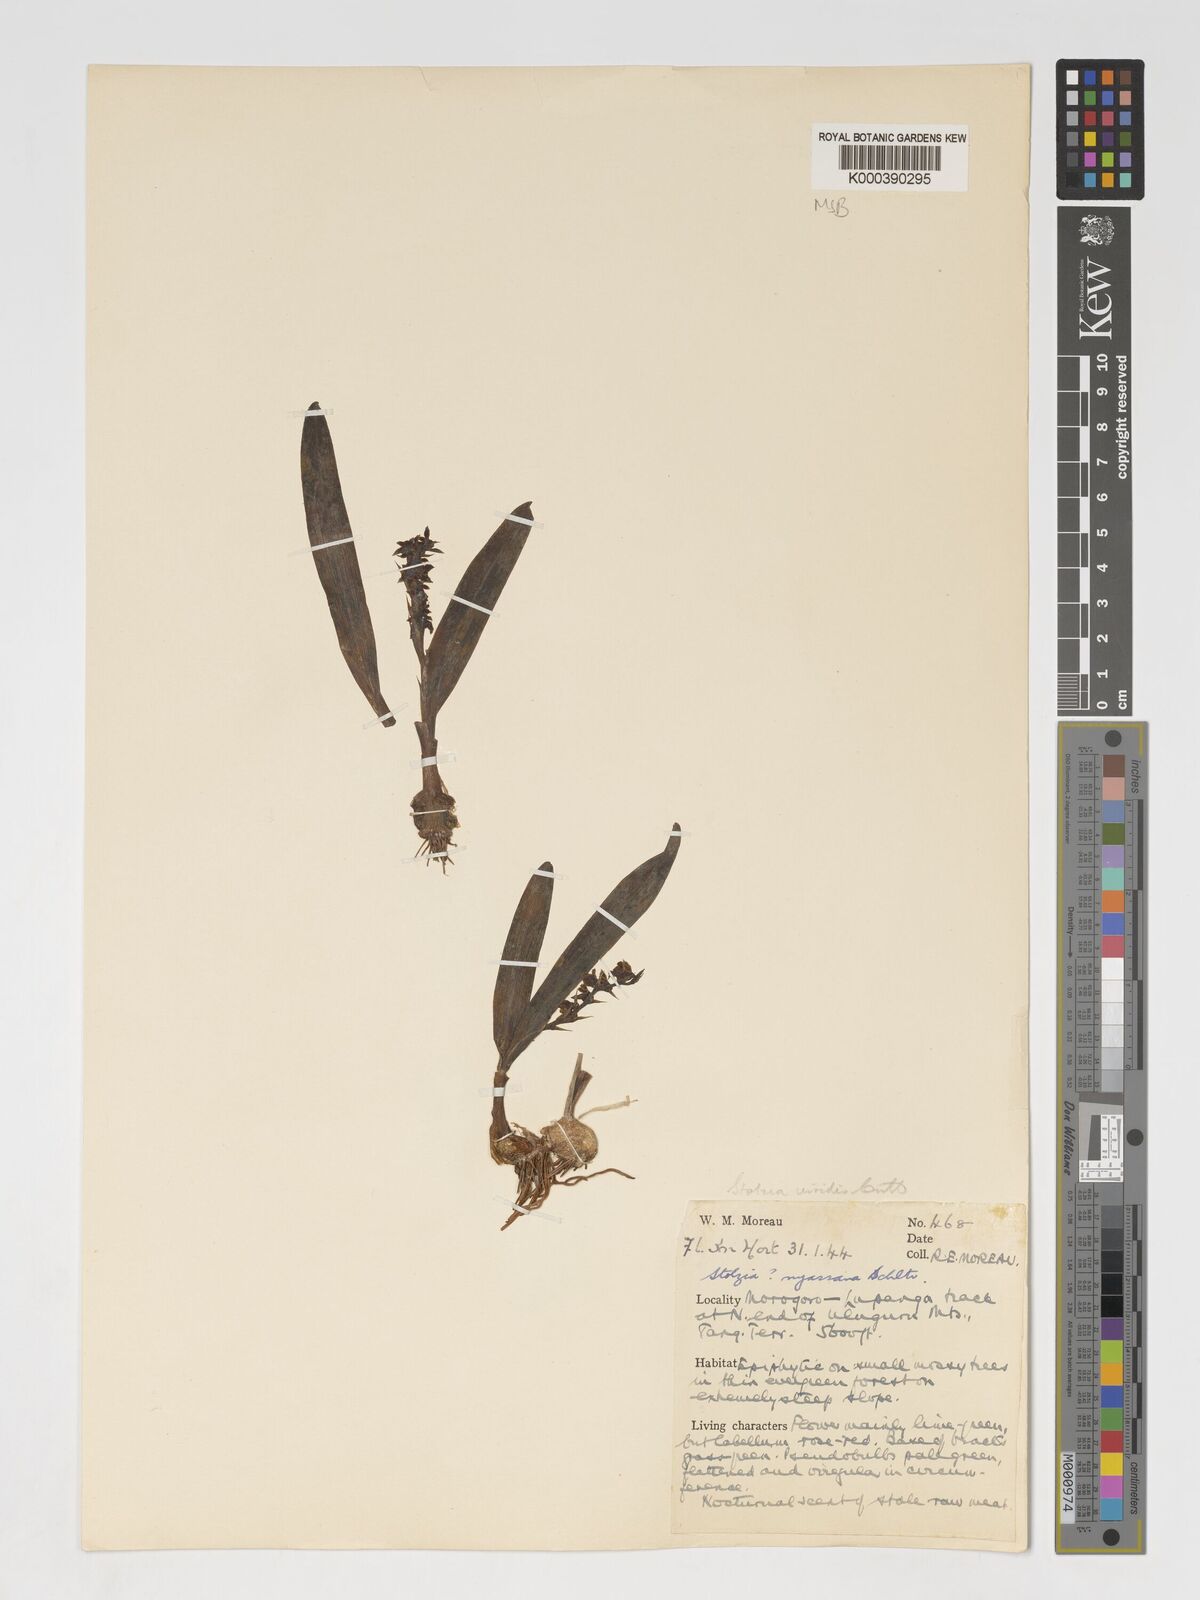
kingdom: Plantae
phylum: Tracheophyta
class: Liliopsida
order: Asparagales
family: Orchidaceae
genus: Porpax
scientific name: Porpax viridis
